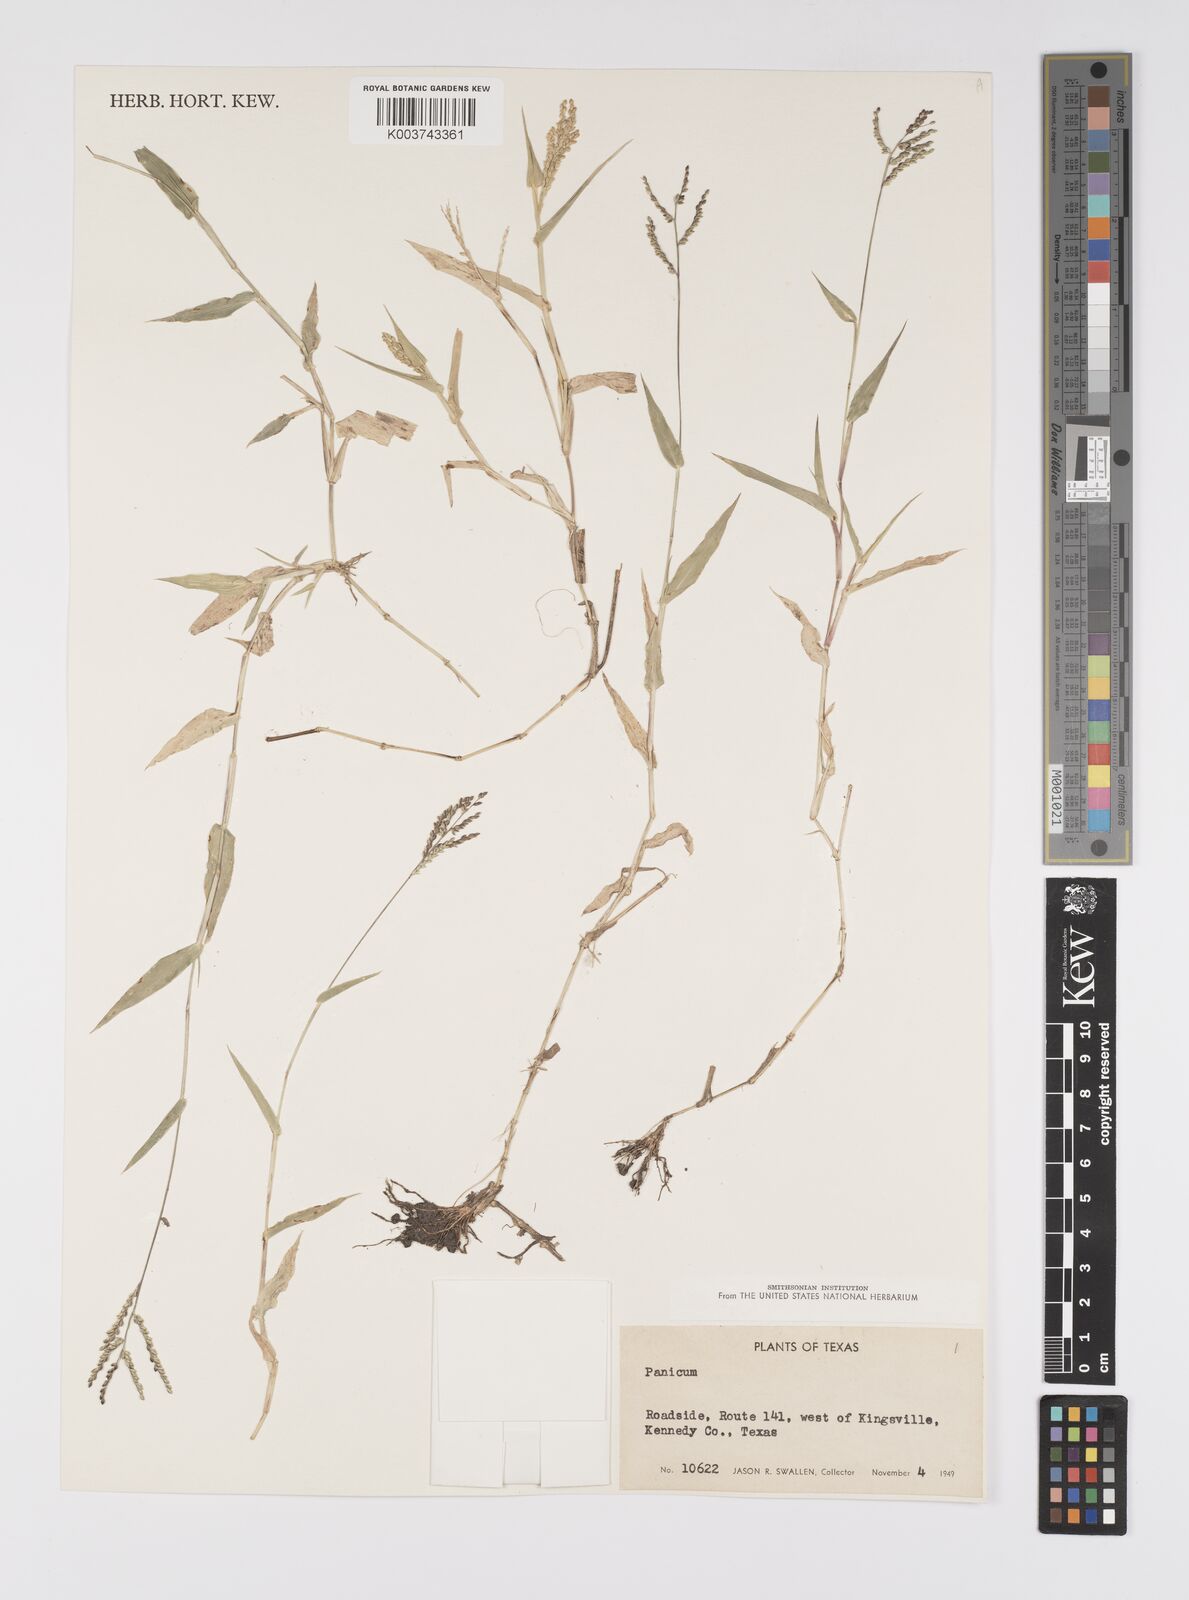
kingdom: Plantae
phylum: Tracheophyta
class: Liliopsida
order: Poales
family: Poaceae
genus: Urochloa
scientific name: Urochloa reptans
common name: Sprawling signalgrass
